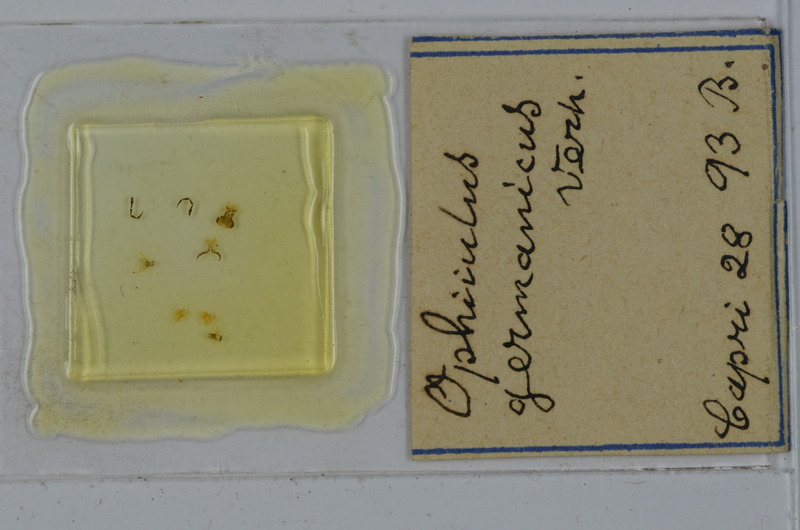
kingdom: Animalia
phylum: Arthropoda
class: Diplopoda
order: Julida
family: Julidae
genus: Ophyiulus
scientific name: Ophyiulus germanicus
